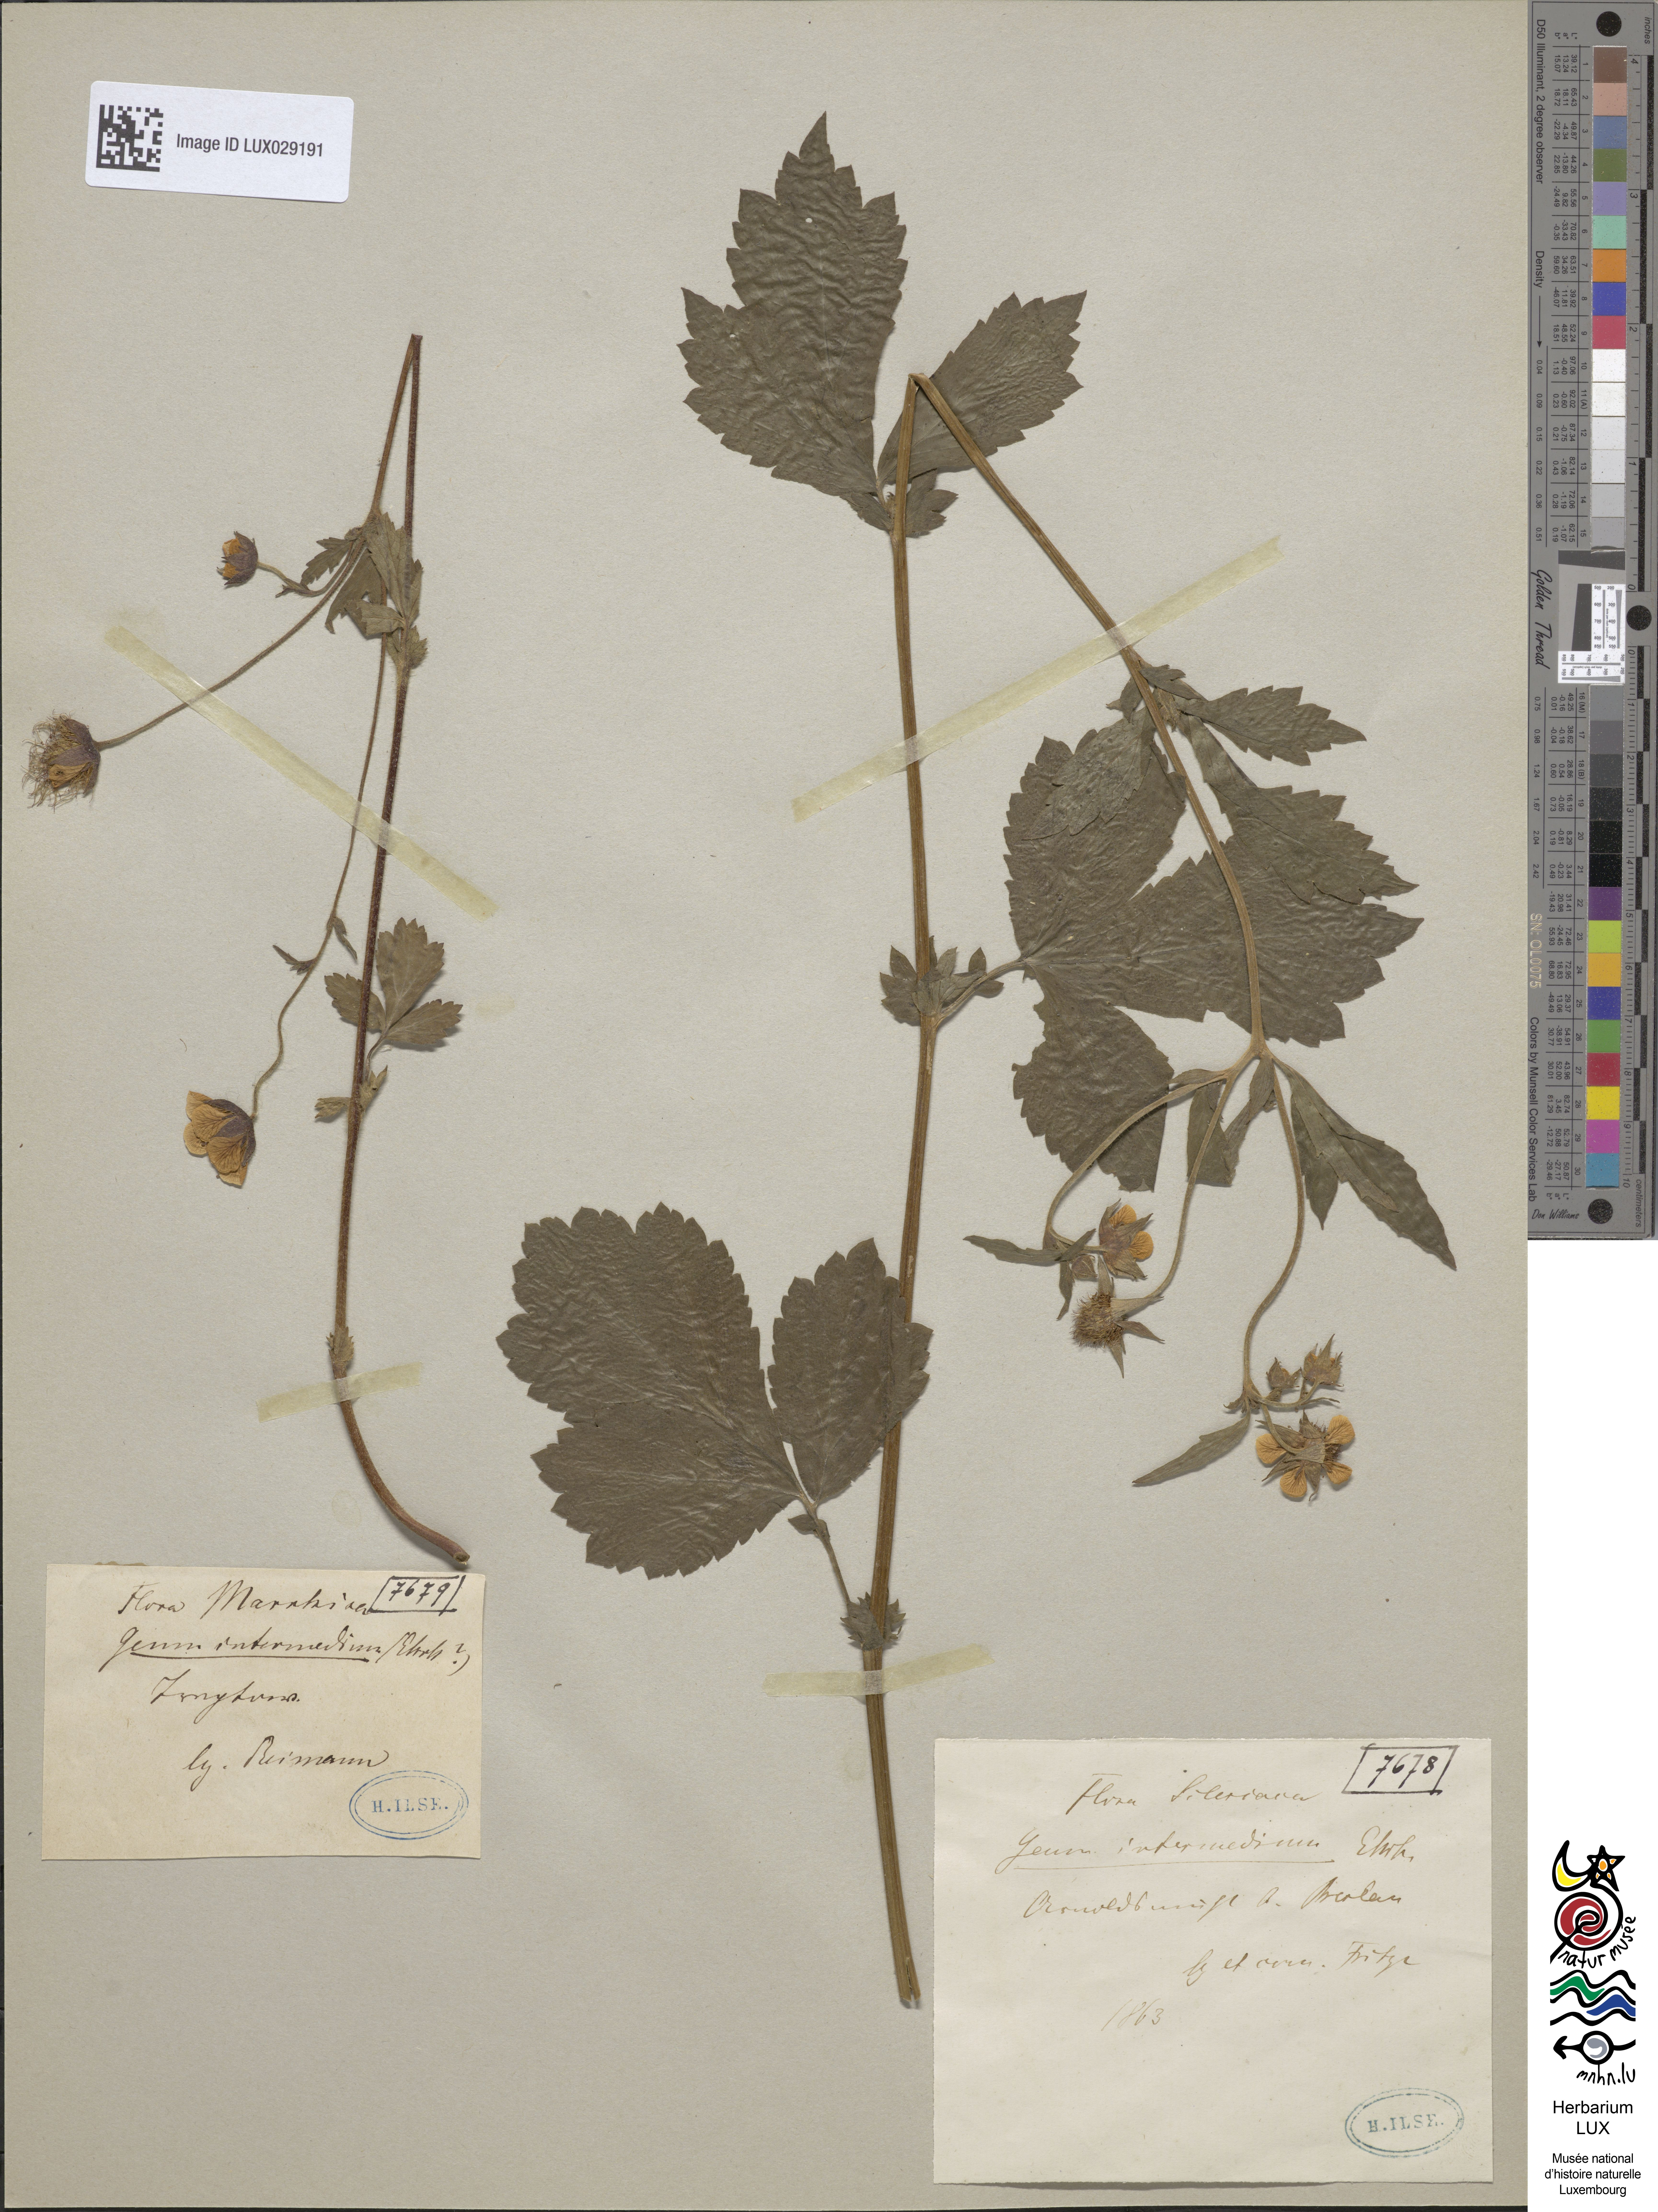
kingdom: Plantae
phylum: Tracheophyta
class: Magnoliopsida
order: Rosales
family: Rosaceae
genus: Geum
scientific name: Geum intermedium
